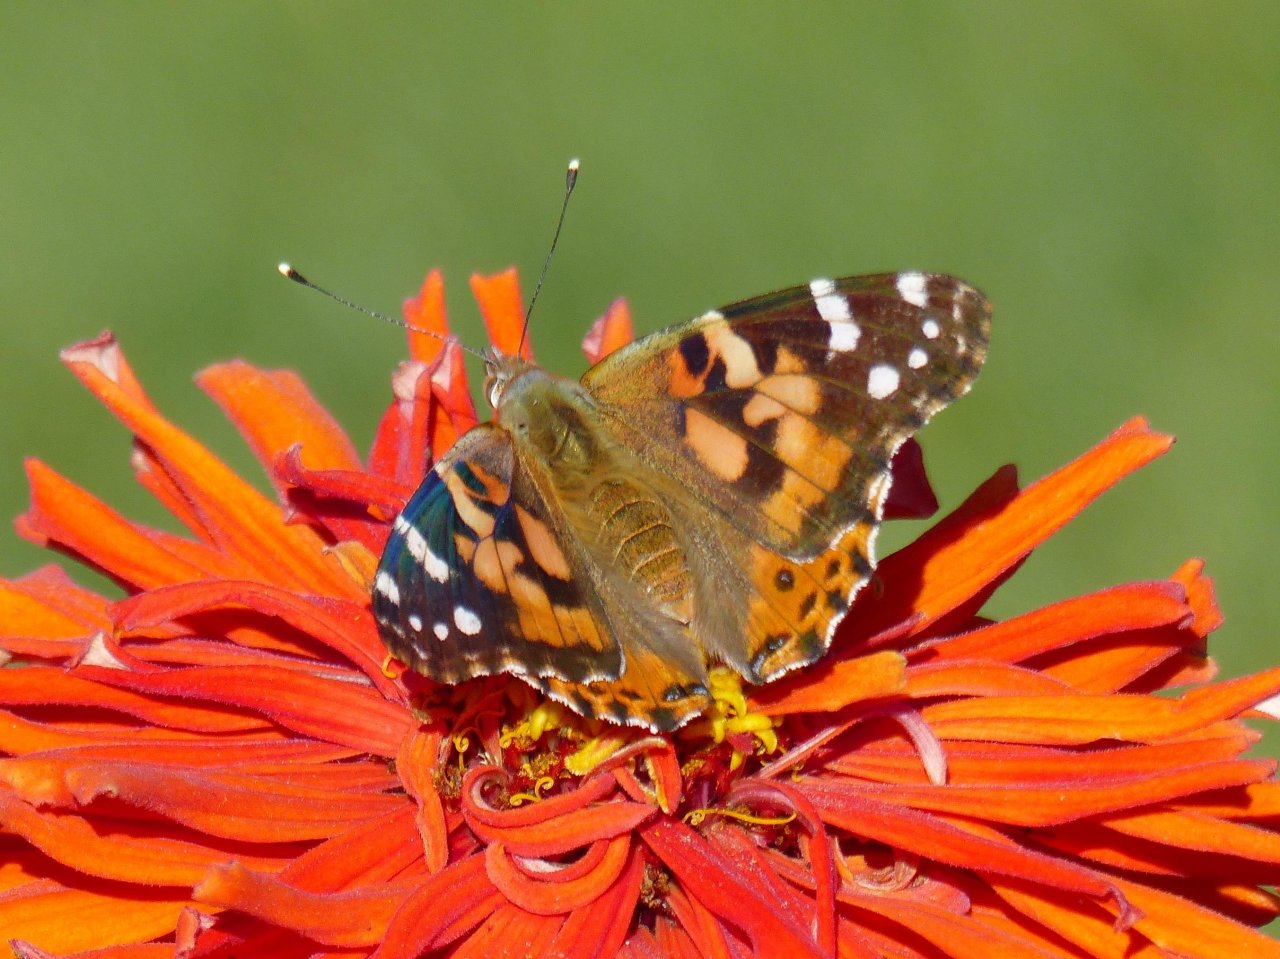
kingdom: Animalia
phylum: Arthropoda
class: Insecta
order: Lepidoptera
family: Nymphalidae
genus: Vanessa
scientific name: Vanessa cardui
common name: Painted Lady
